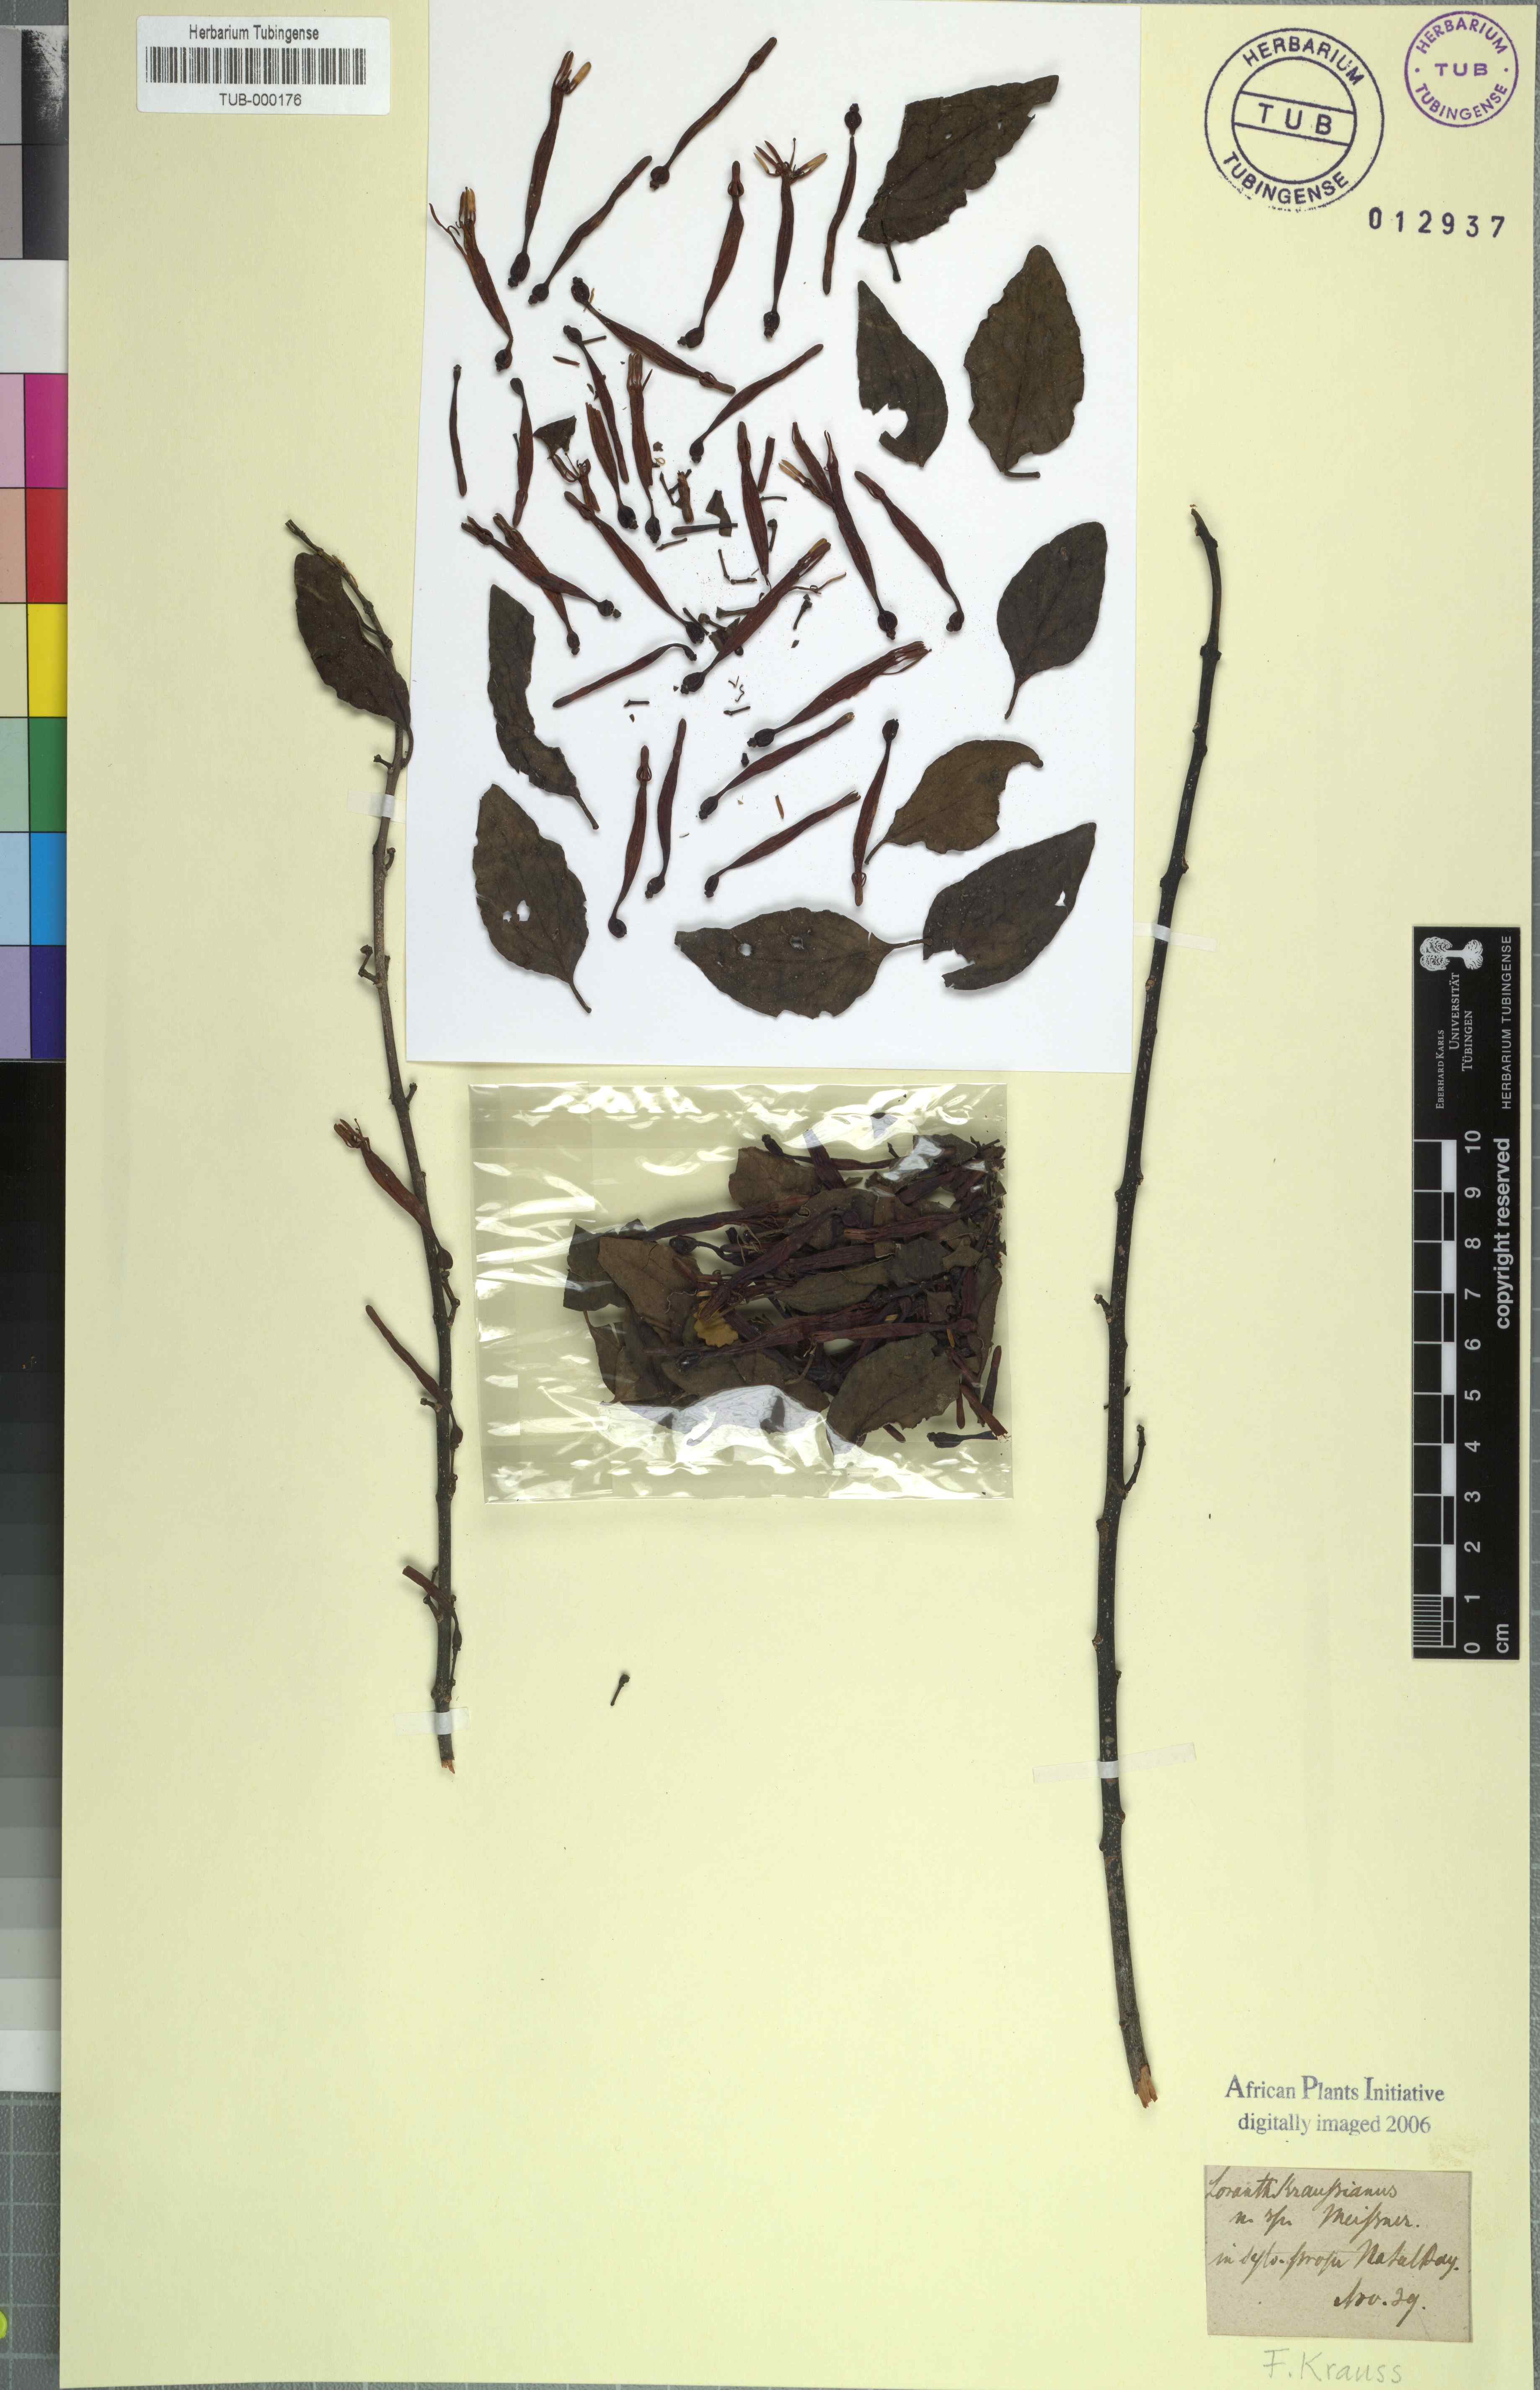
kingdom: Plantae
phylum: Tracheophyta
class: Magnoliopsida
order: Santalales
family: Loranthaceae
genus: Agelanthus
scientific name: Agelanthus kraussianus
